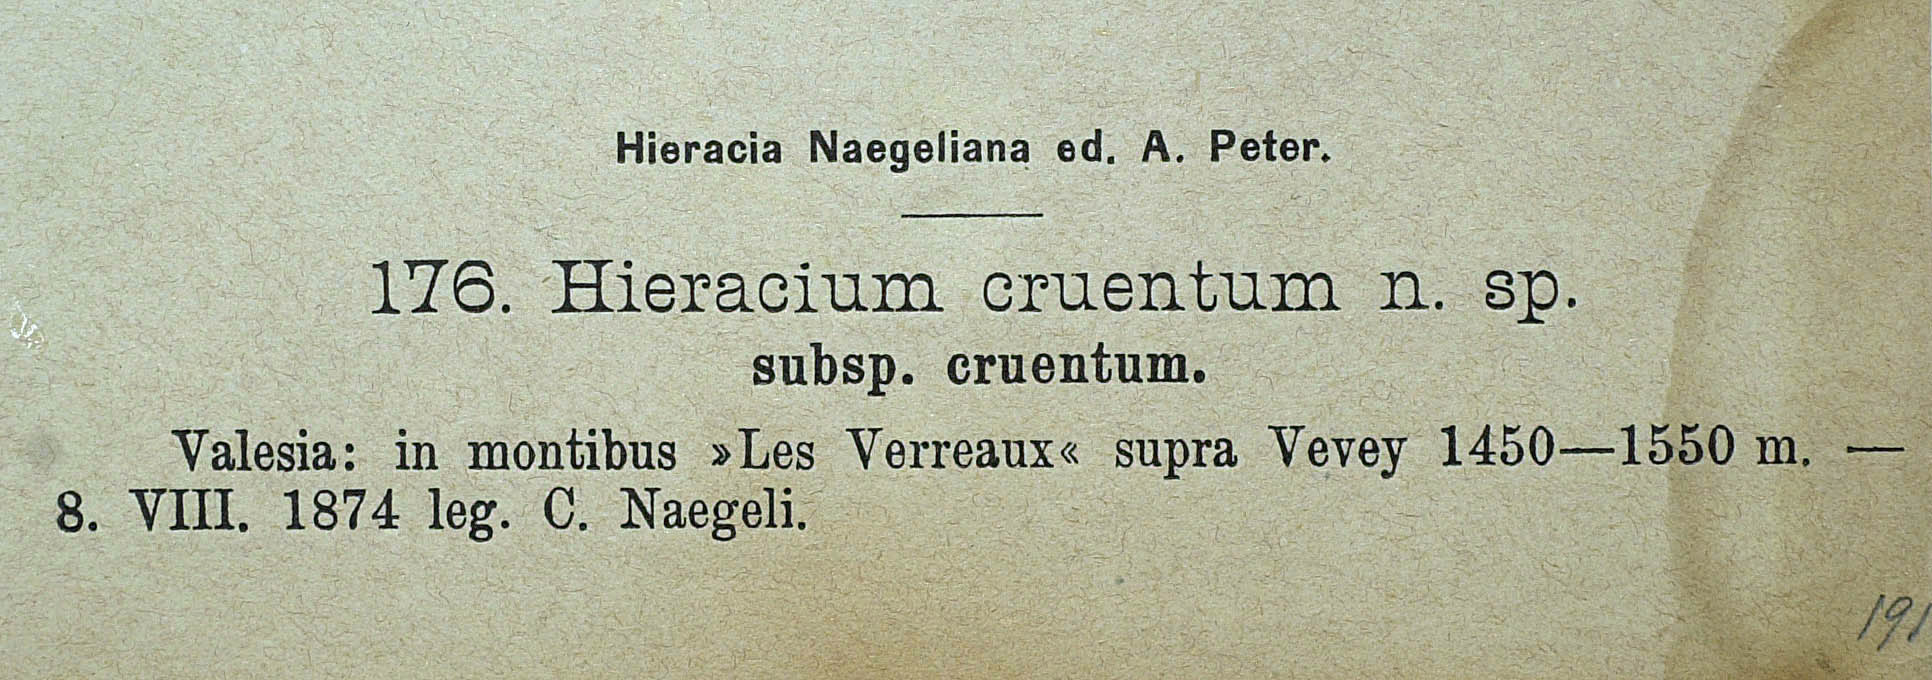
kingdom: Plantae
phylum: Tracheophyta
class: Magnoliopsida
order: Asterales
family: Asteraceae
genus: Pilosella
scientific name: Pilosella guthnikiana
